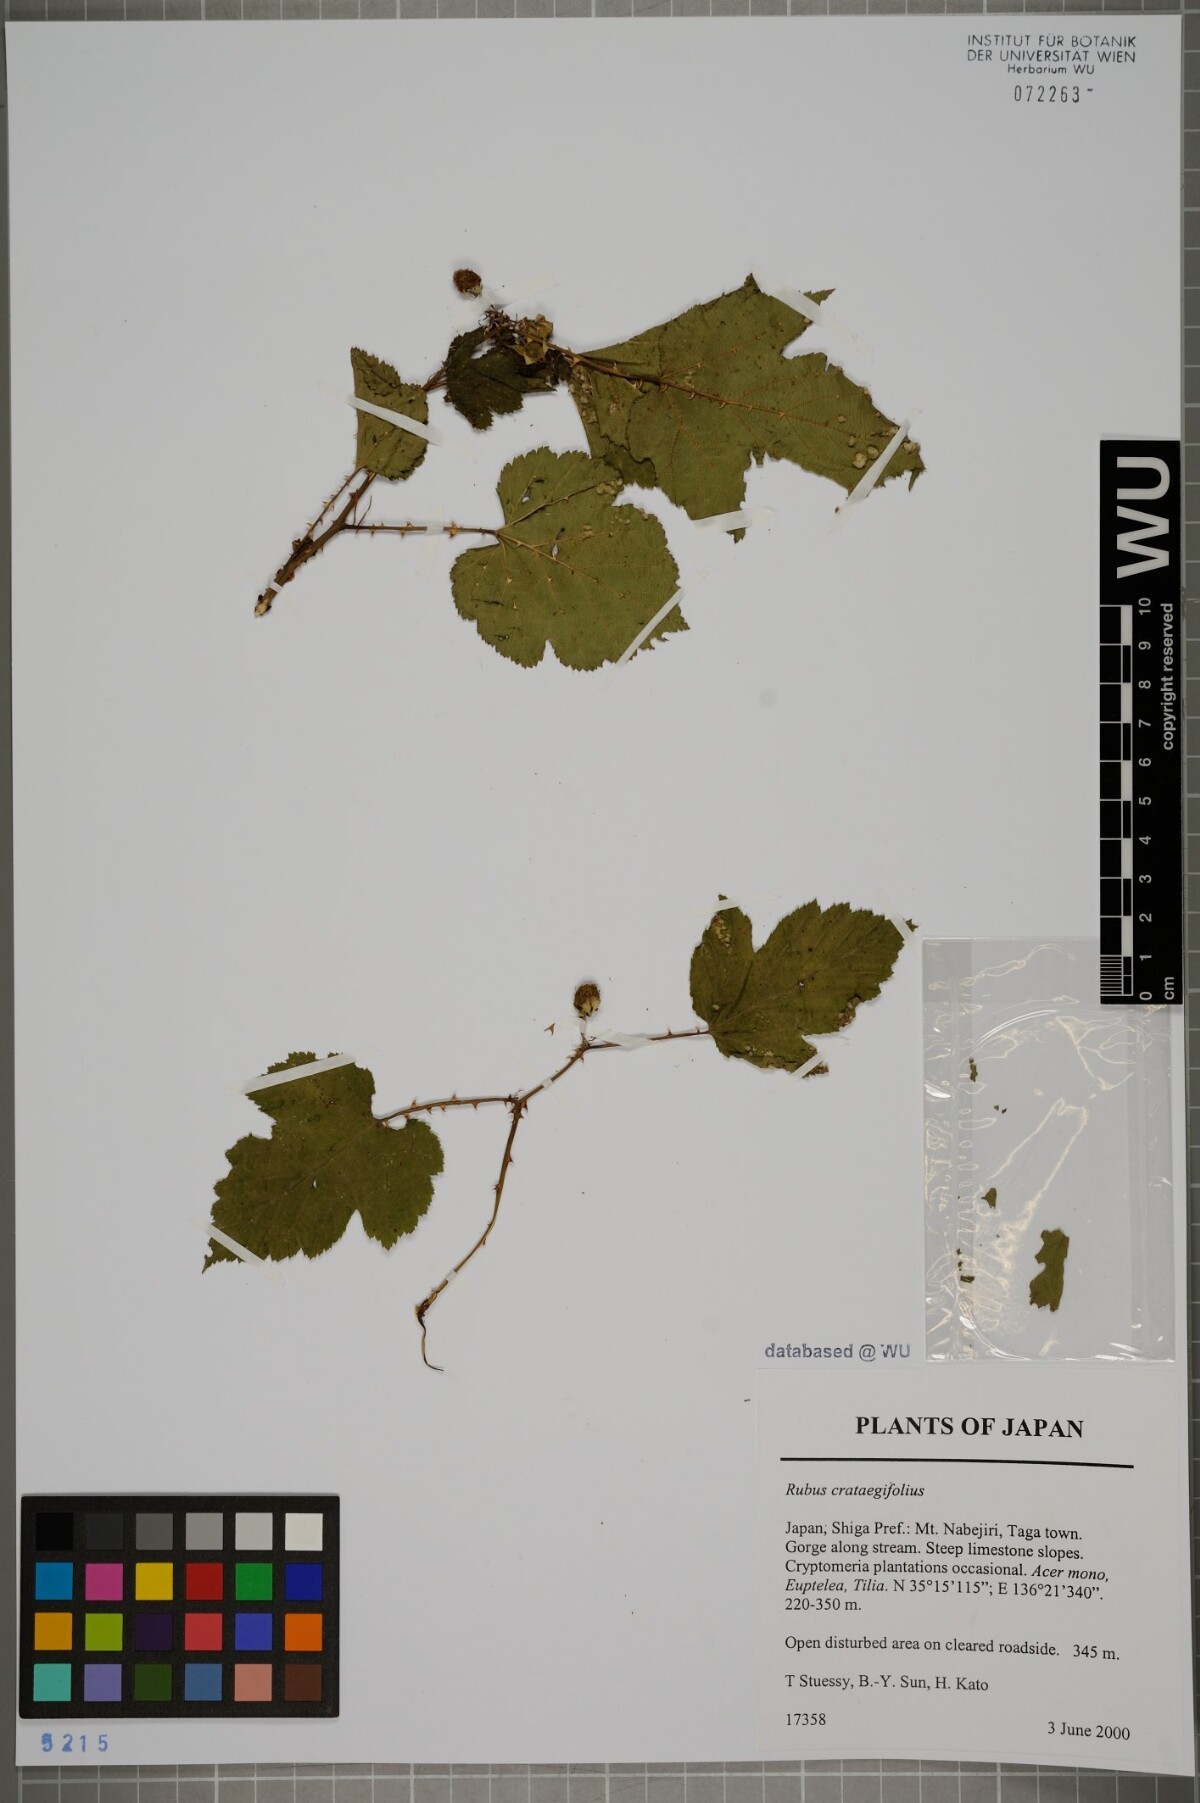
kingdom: Plantae
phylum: Tracheophyta
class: Magnoliopsida
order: Rosales
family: Rosaceae
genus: Rubus
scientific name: Rubus crataegifolius
